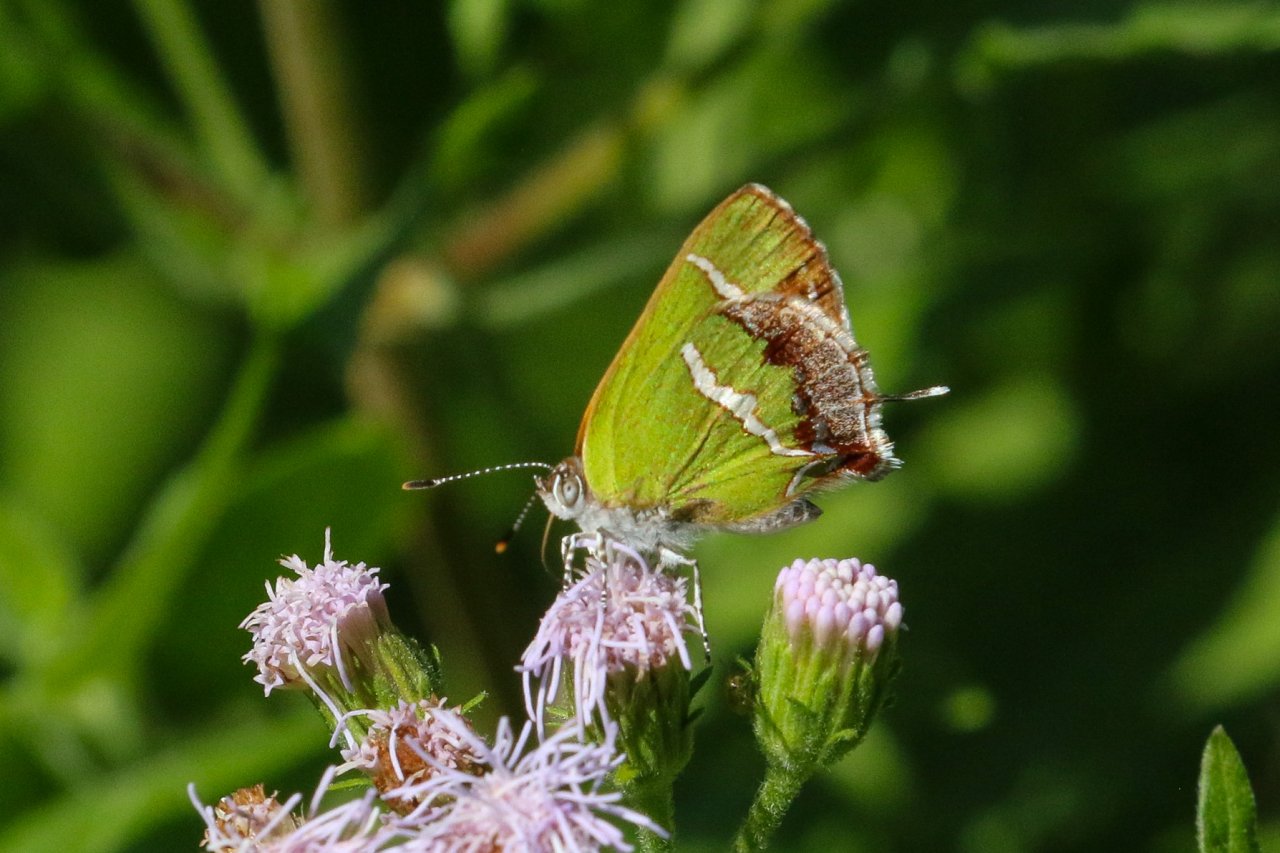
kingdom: Animalia
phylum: Arthropoda
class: Insecta
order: Lepidoptera
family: Lycaenidae
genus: Chlorostrymon
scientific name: Chlorostrymon simaethis
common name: Silver-banded Hairstreak
